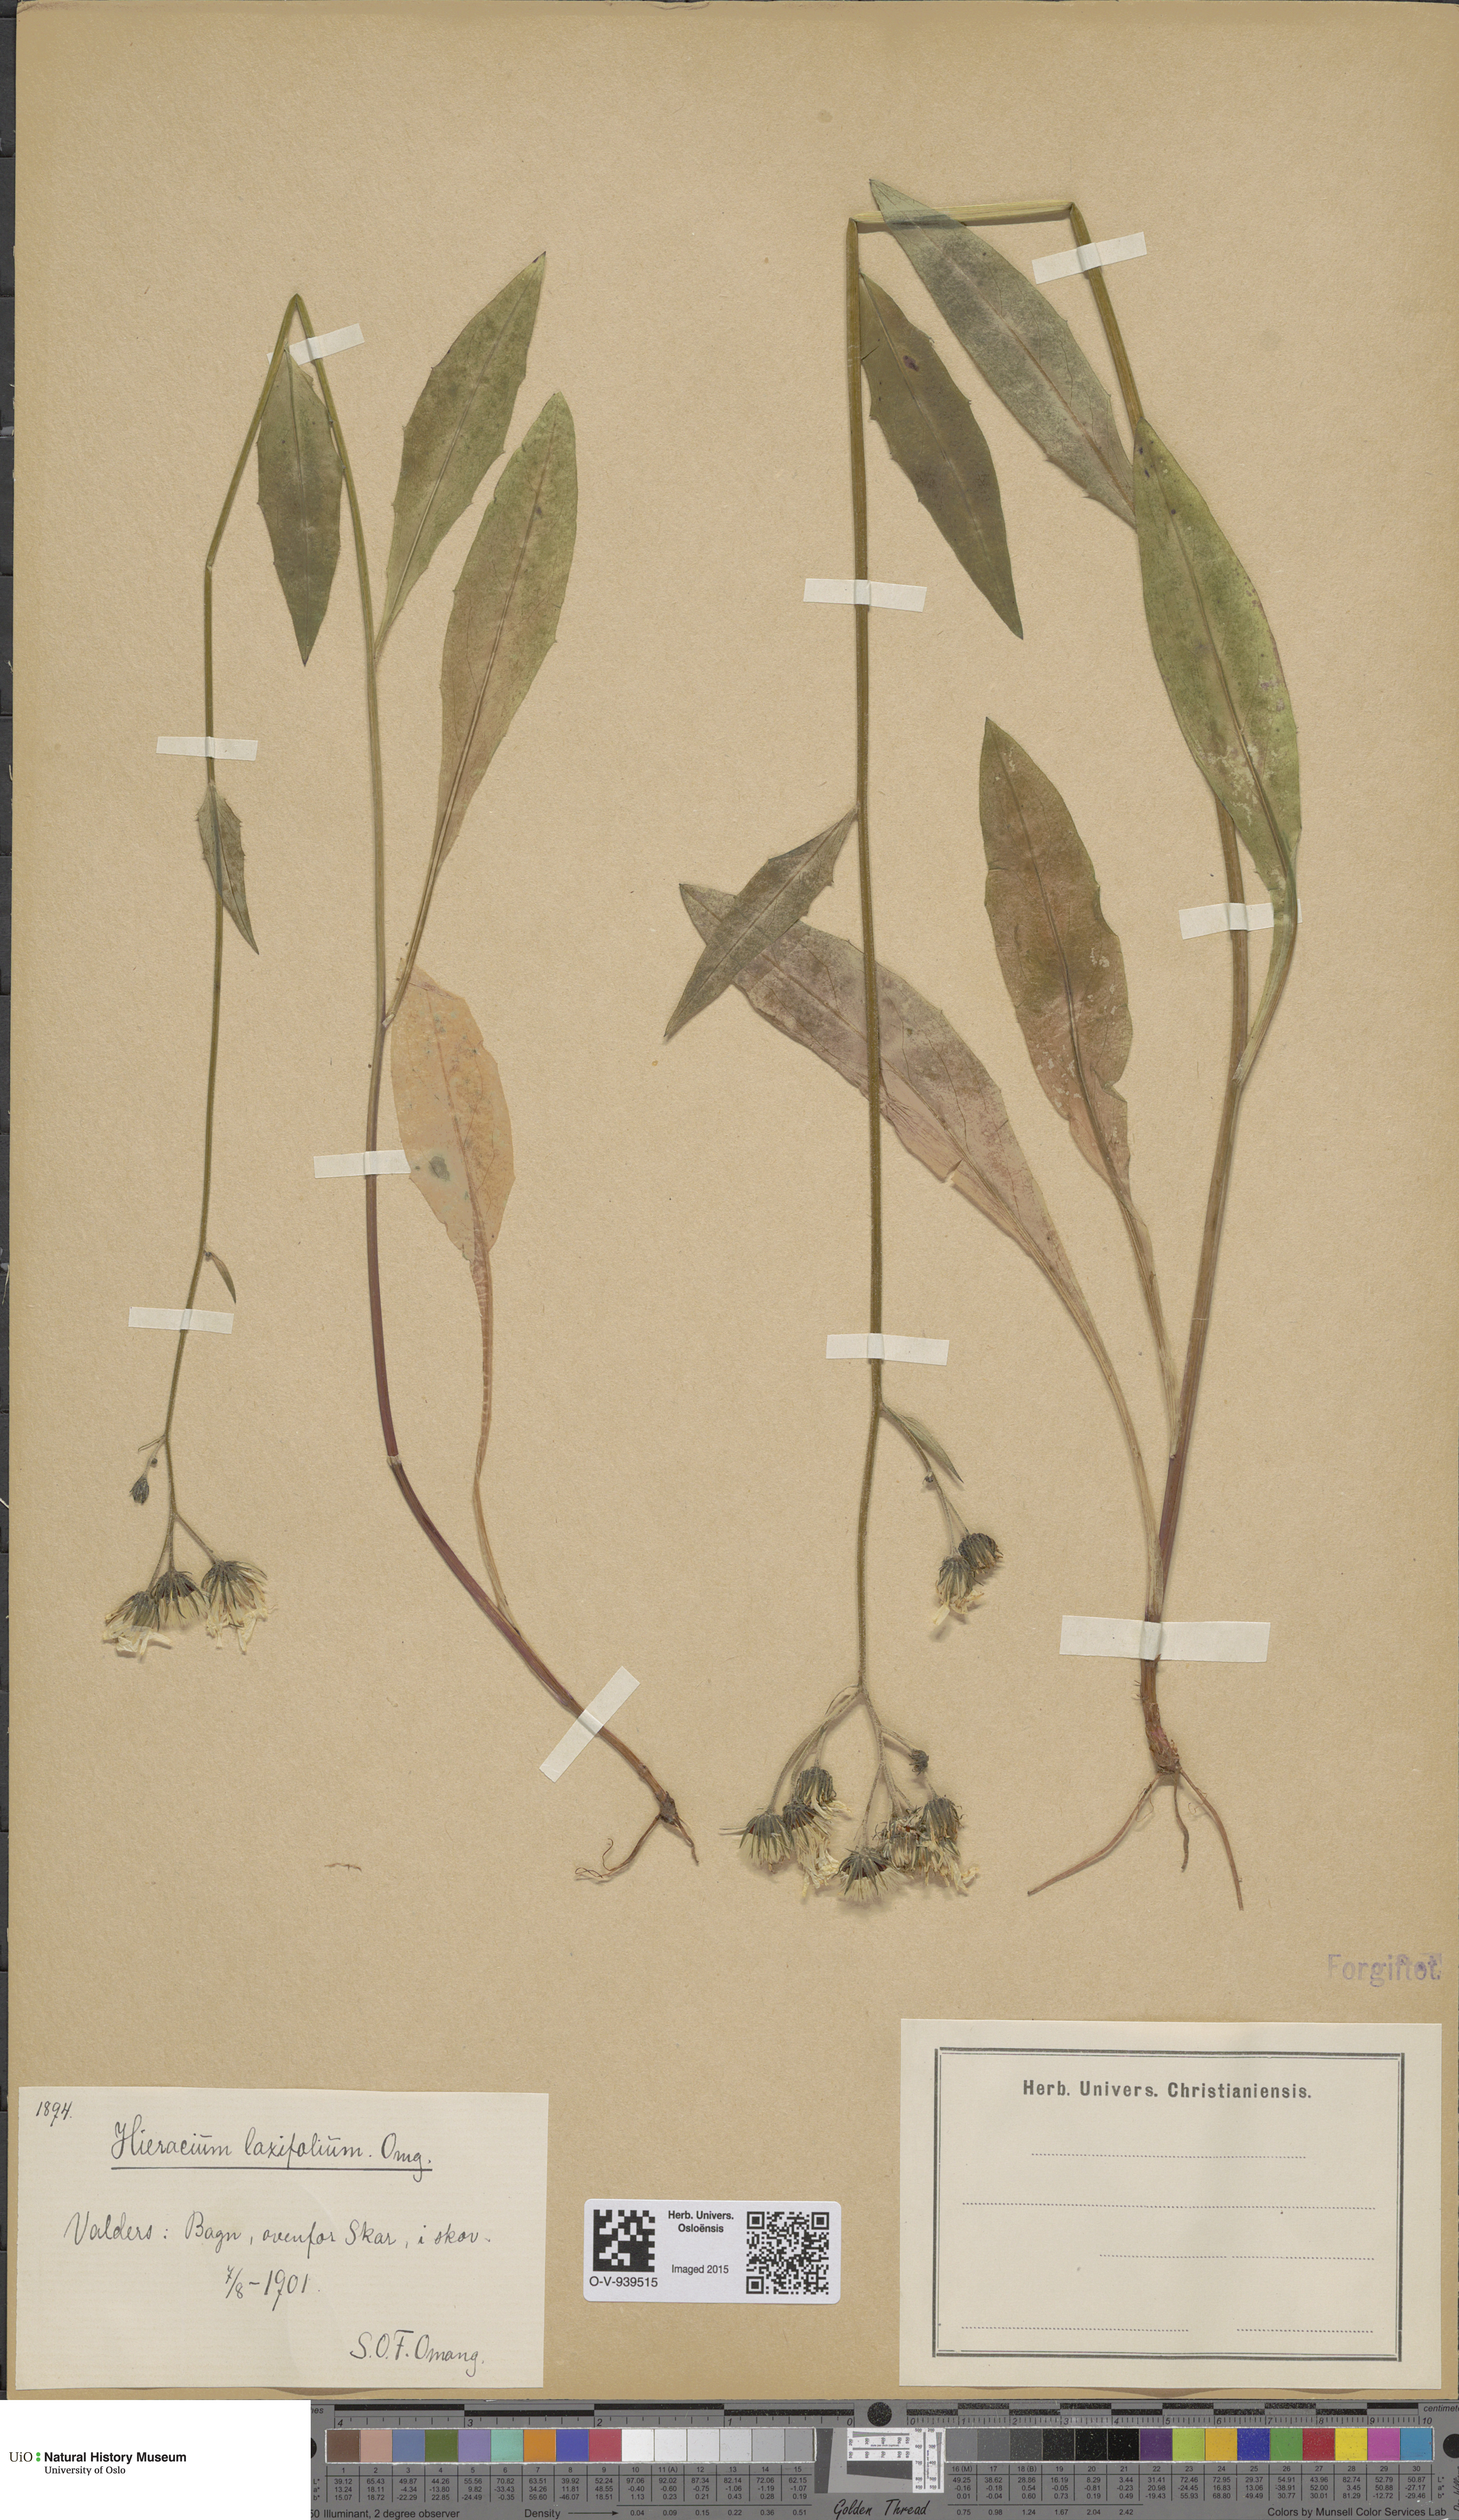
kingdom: Plantae
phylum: Tracheophyta
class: Magnoliopsida
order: Asterales
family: Asteraceae
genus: Hieracium
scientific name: Hieracium
